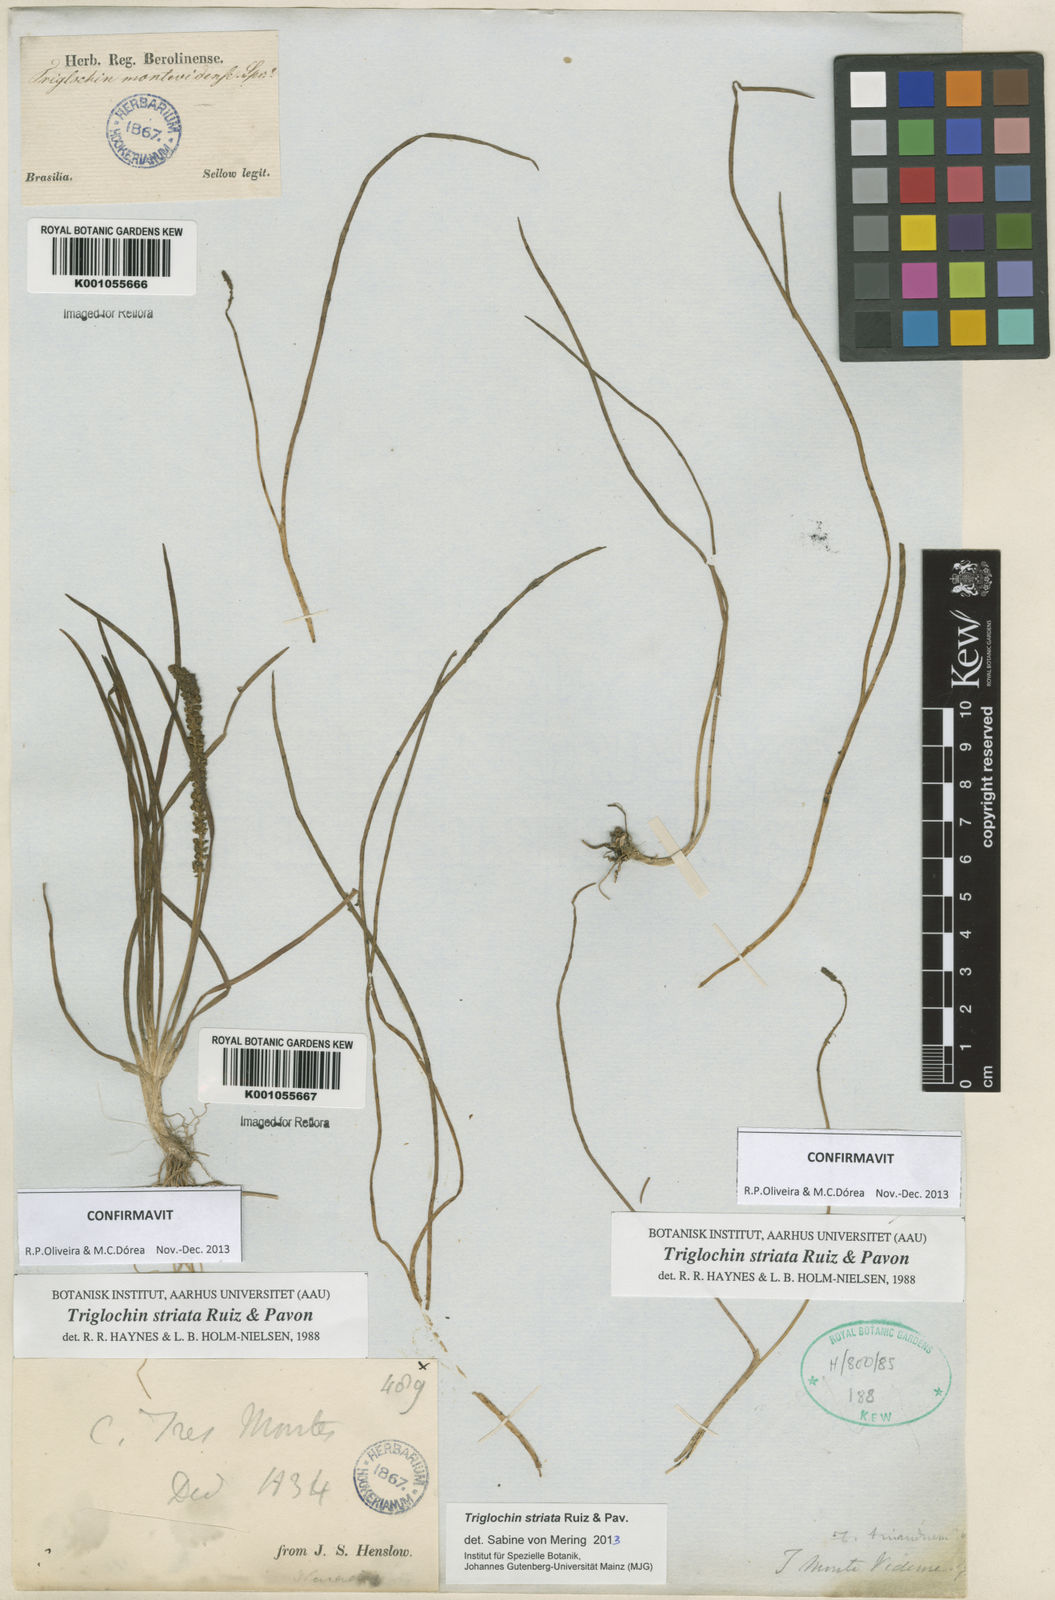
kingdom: Plantae
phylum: Tracheophyta
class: Liliopsida
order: Alismatales
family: Juncaginaceae
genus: Triglochin
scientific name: Triglochin striata
